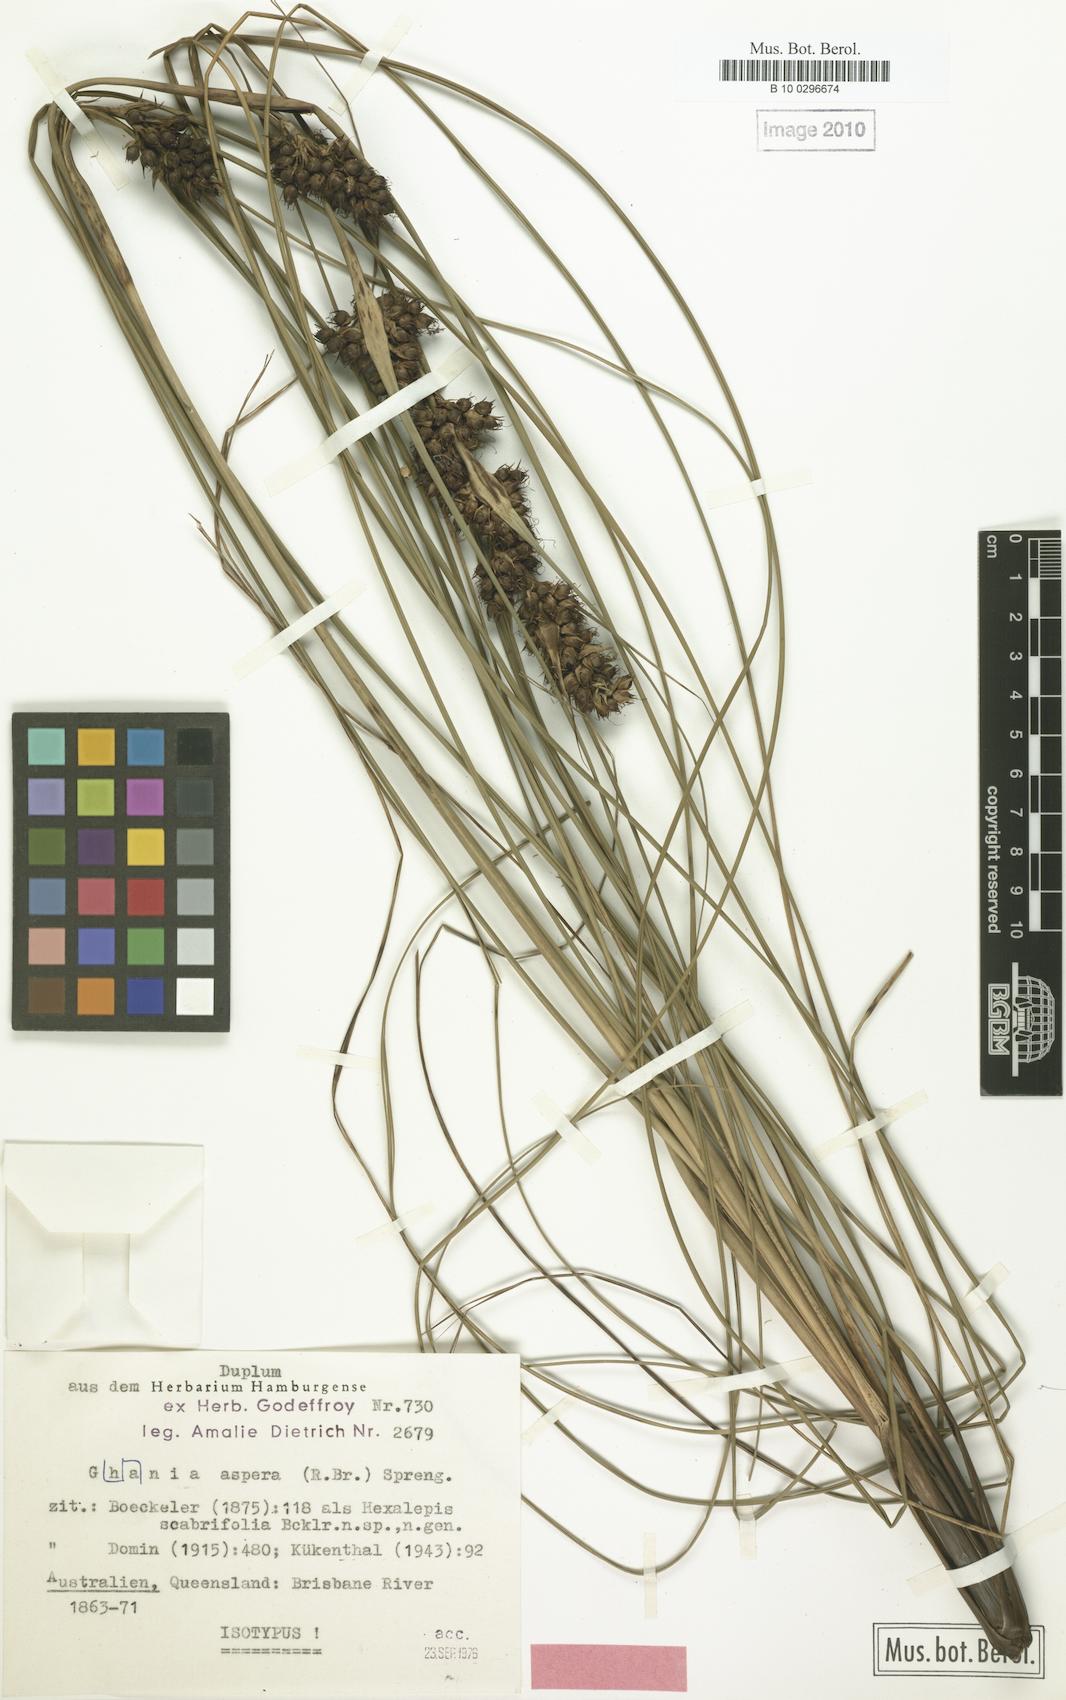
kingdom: Plantae
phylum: Tracheophyta
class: Liliopsida
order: Poales
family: Cyperaceae
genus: Gahnia
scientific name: Gahnia aspera
